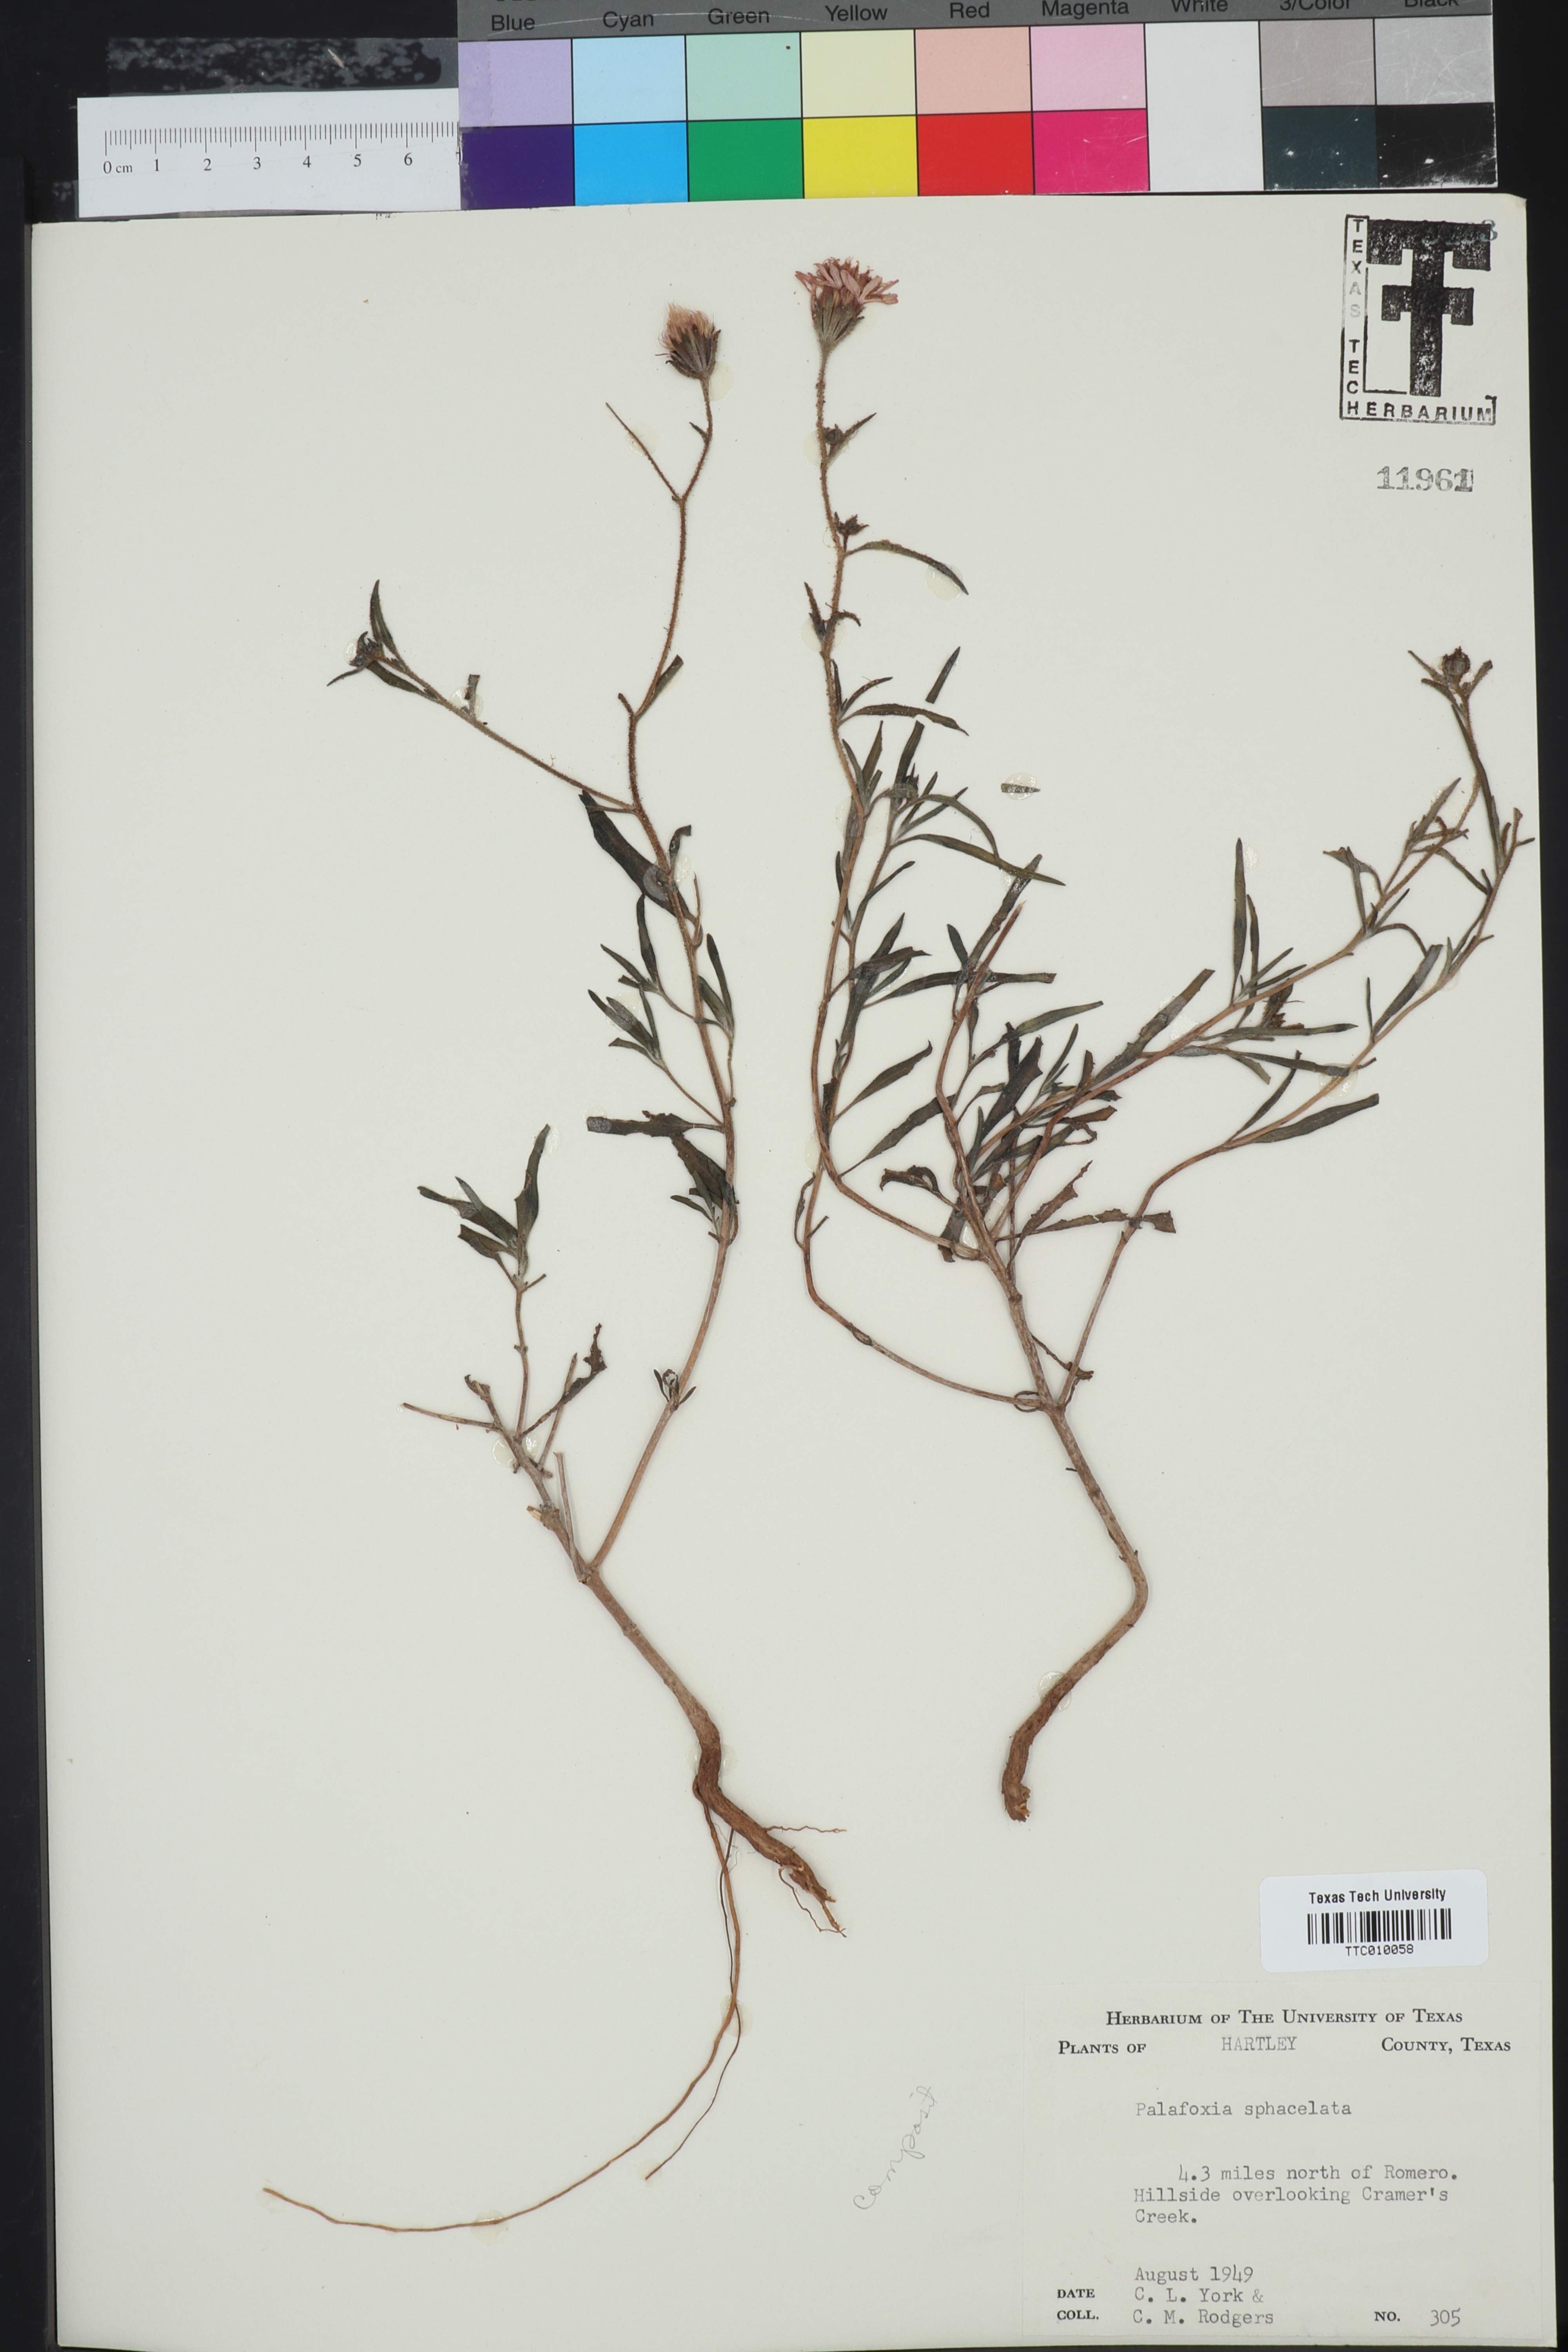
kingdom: Plantae
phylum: Tracheophyta
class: Magnoliopsida
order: Asterales
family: Asteraceae
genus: Palafoxia
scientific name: Palafoxia sphacelata
